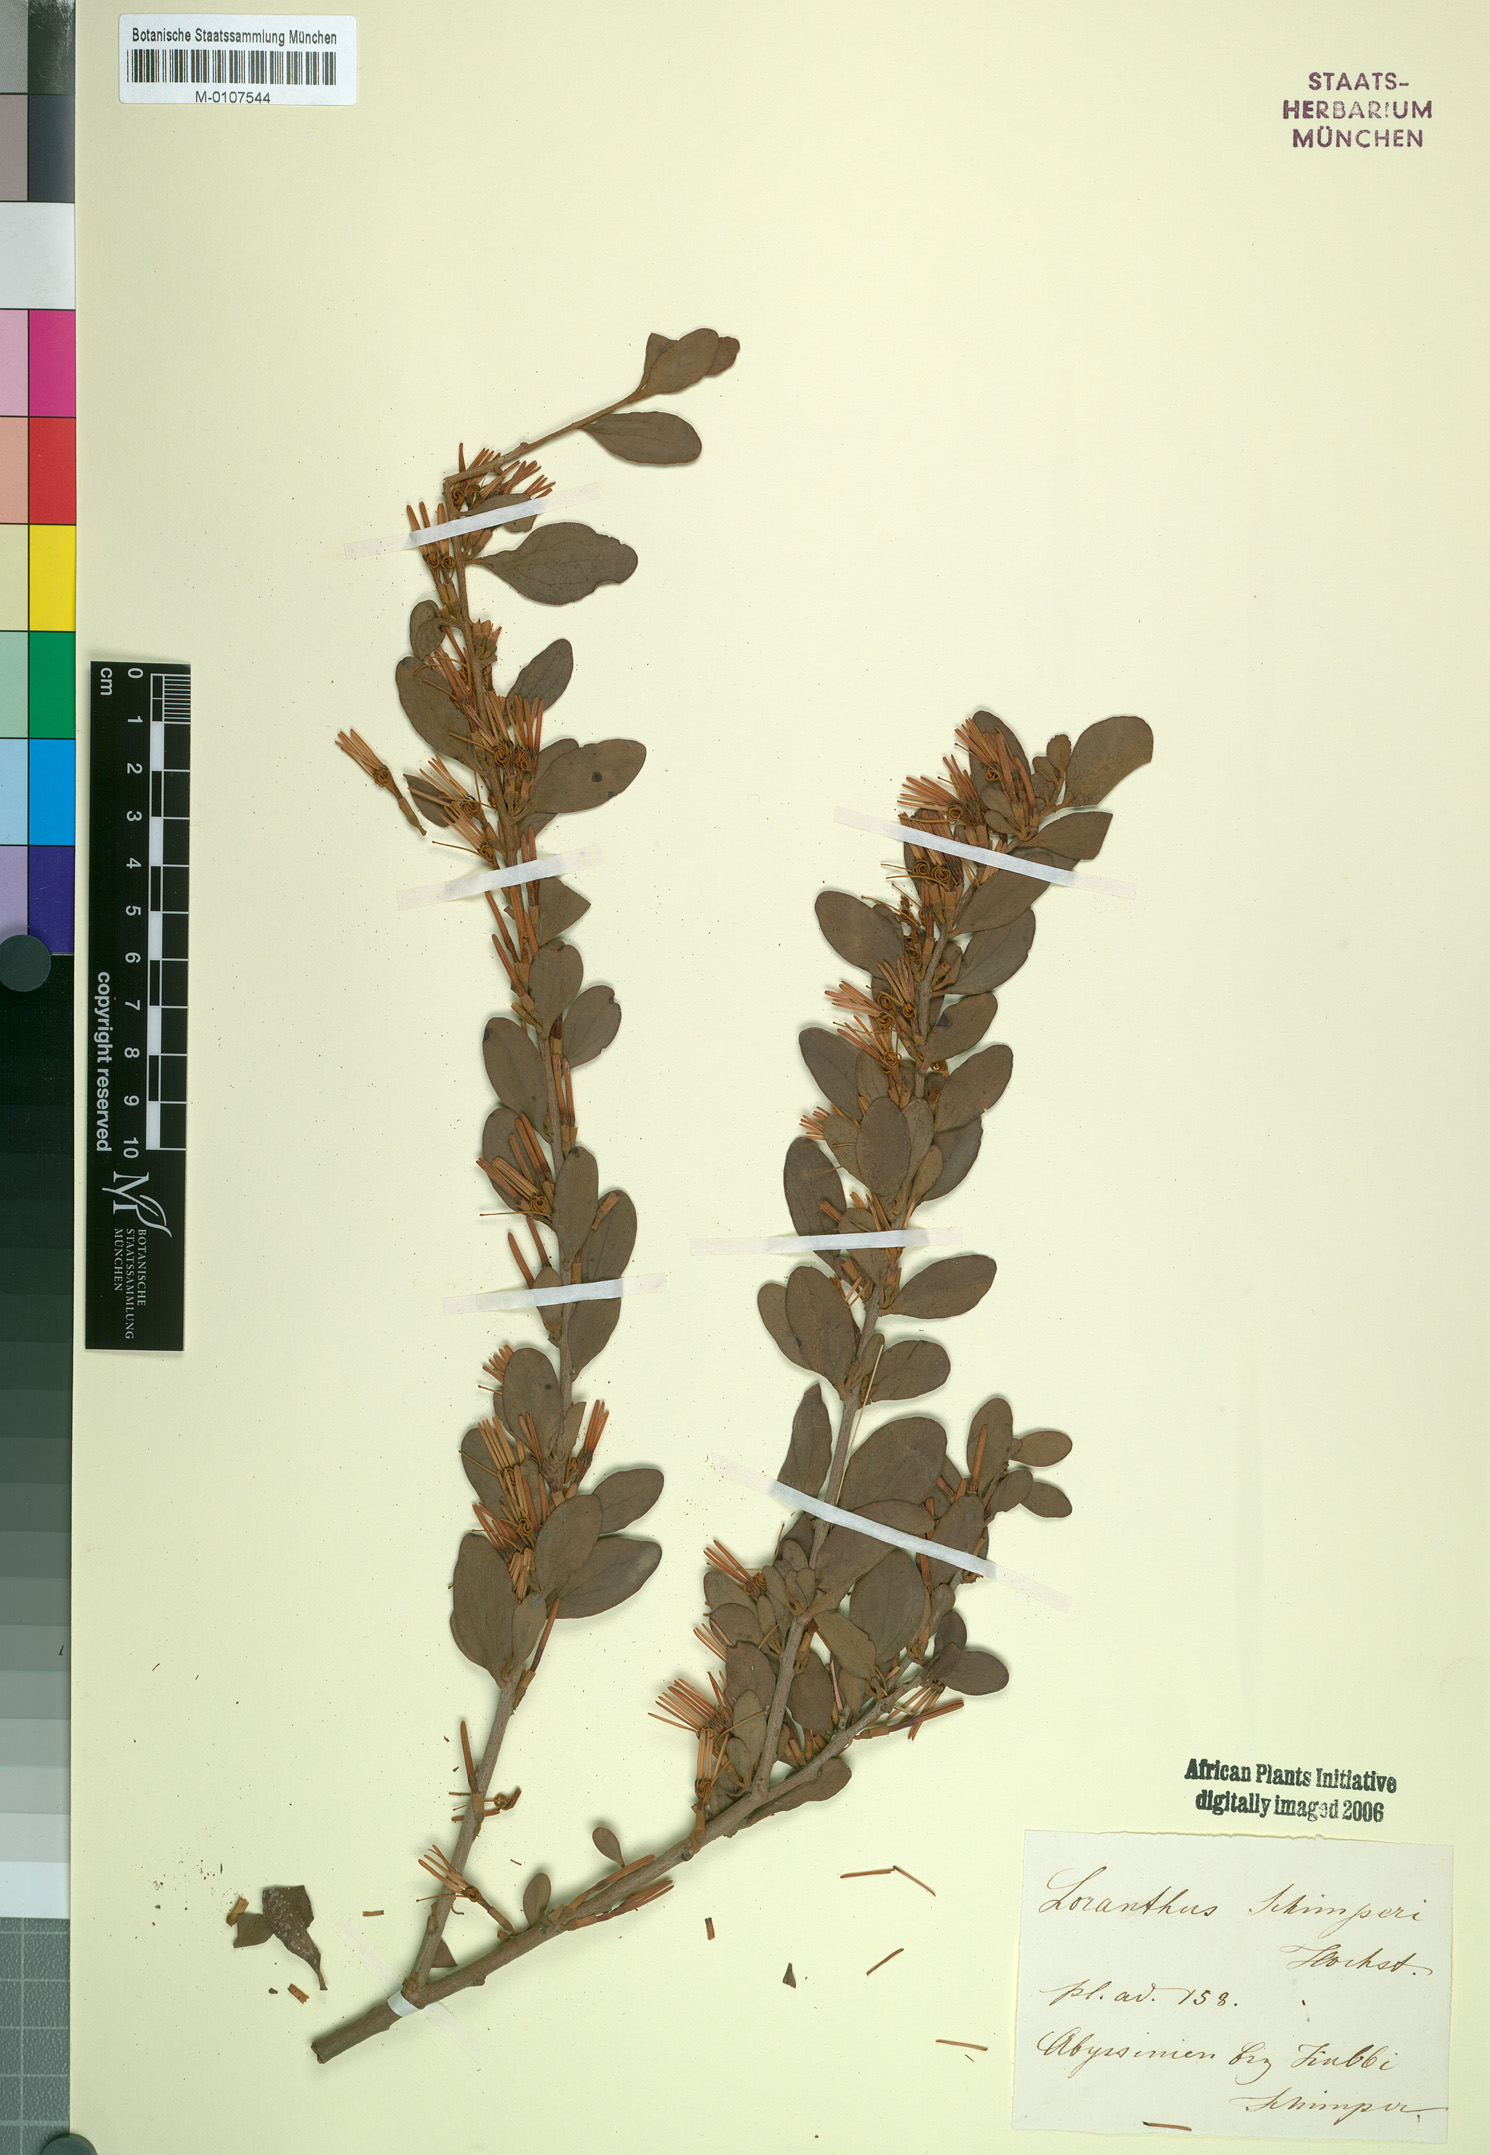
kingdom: Plantae
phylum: Tracheophyta
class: Magnoliopsida
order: Santalales
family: Loranthaceae
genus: Loranthella
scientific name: Loranthella
